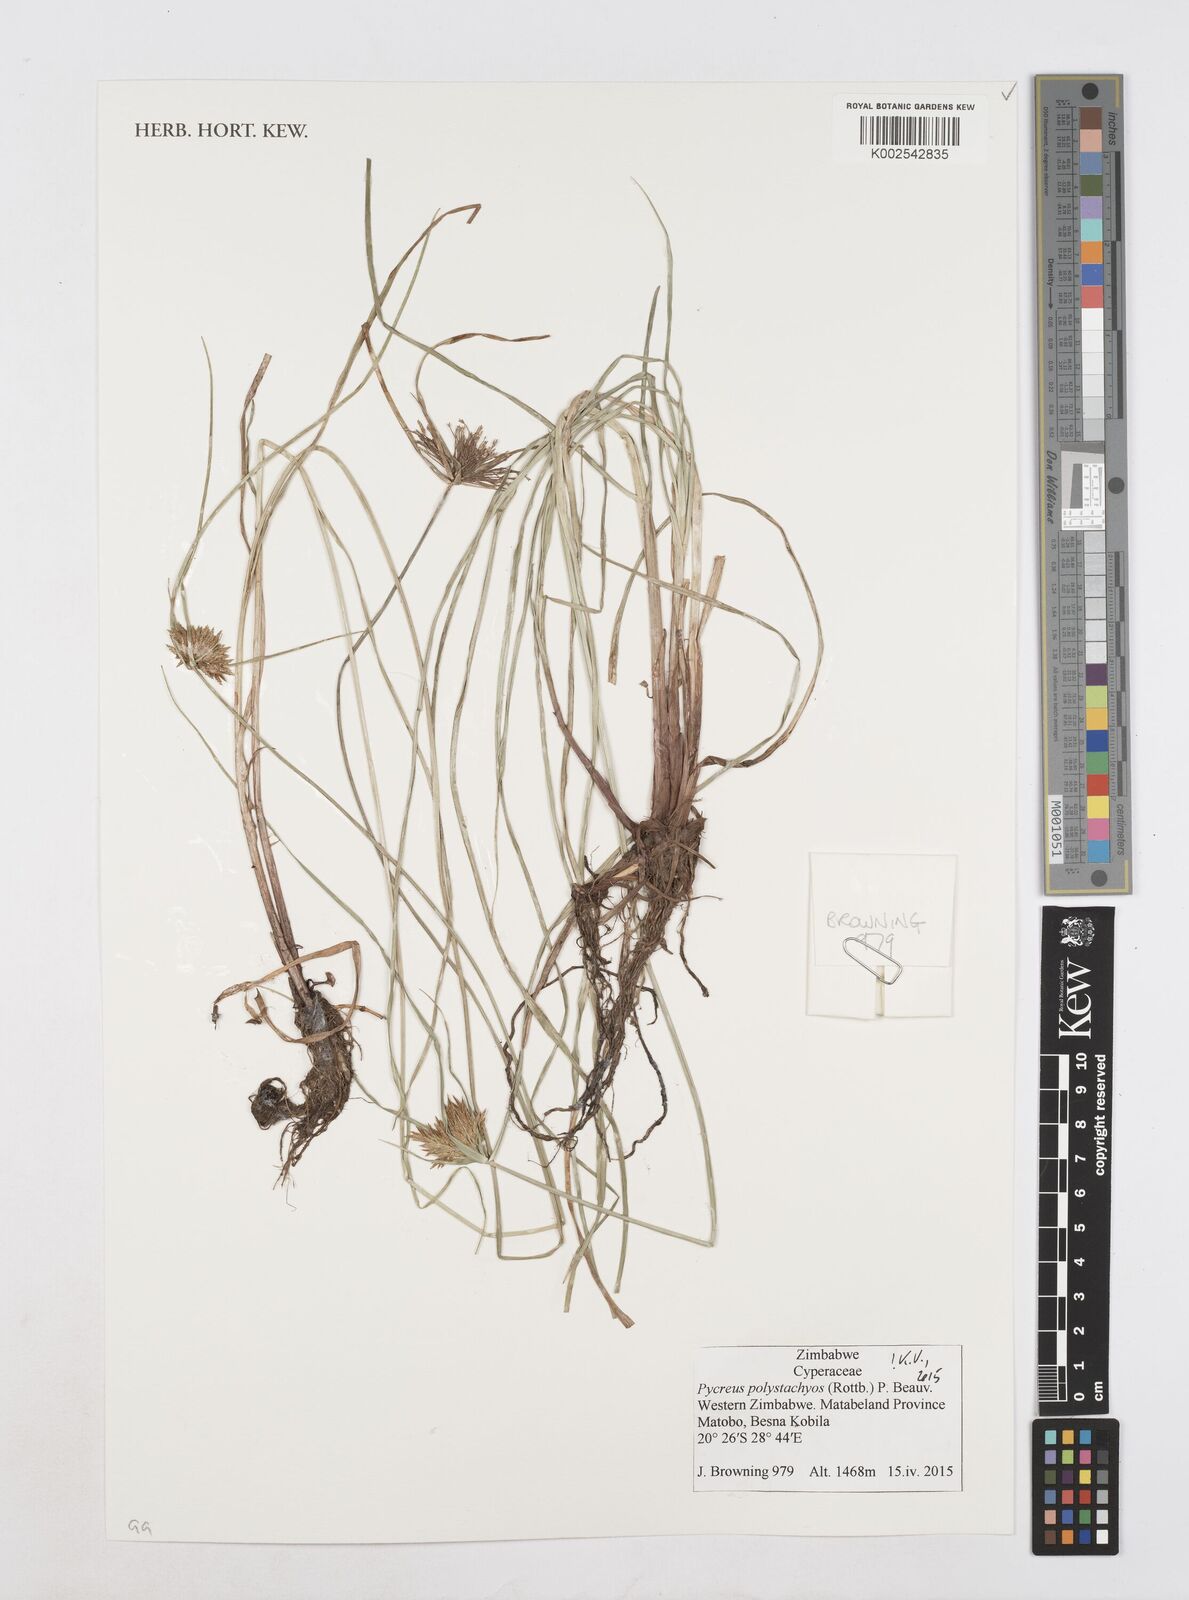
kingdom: Plantae
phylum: Tracheophyta
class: Liliopsida
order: Poales
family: Cyperaceae
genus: Cyperus
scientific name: Cyperus polystachyos
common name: Bunchy flat sedge
